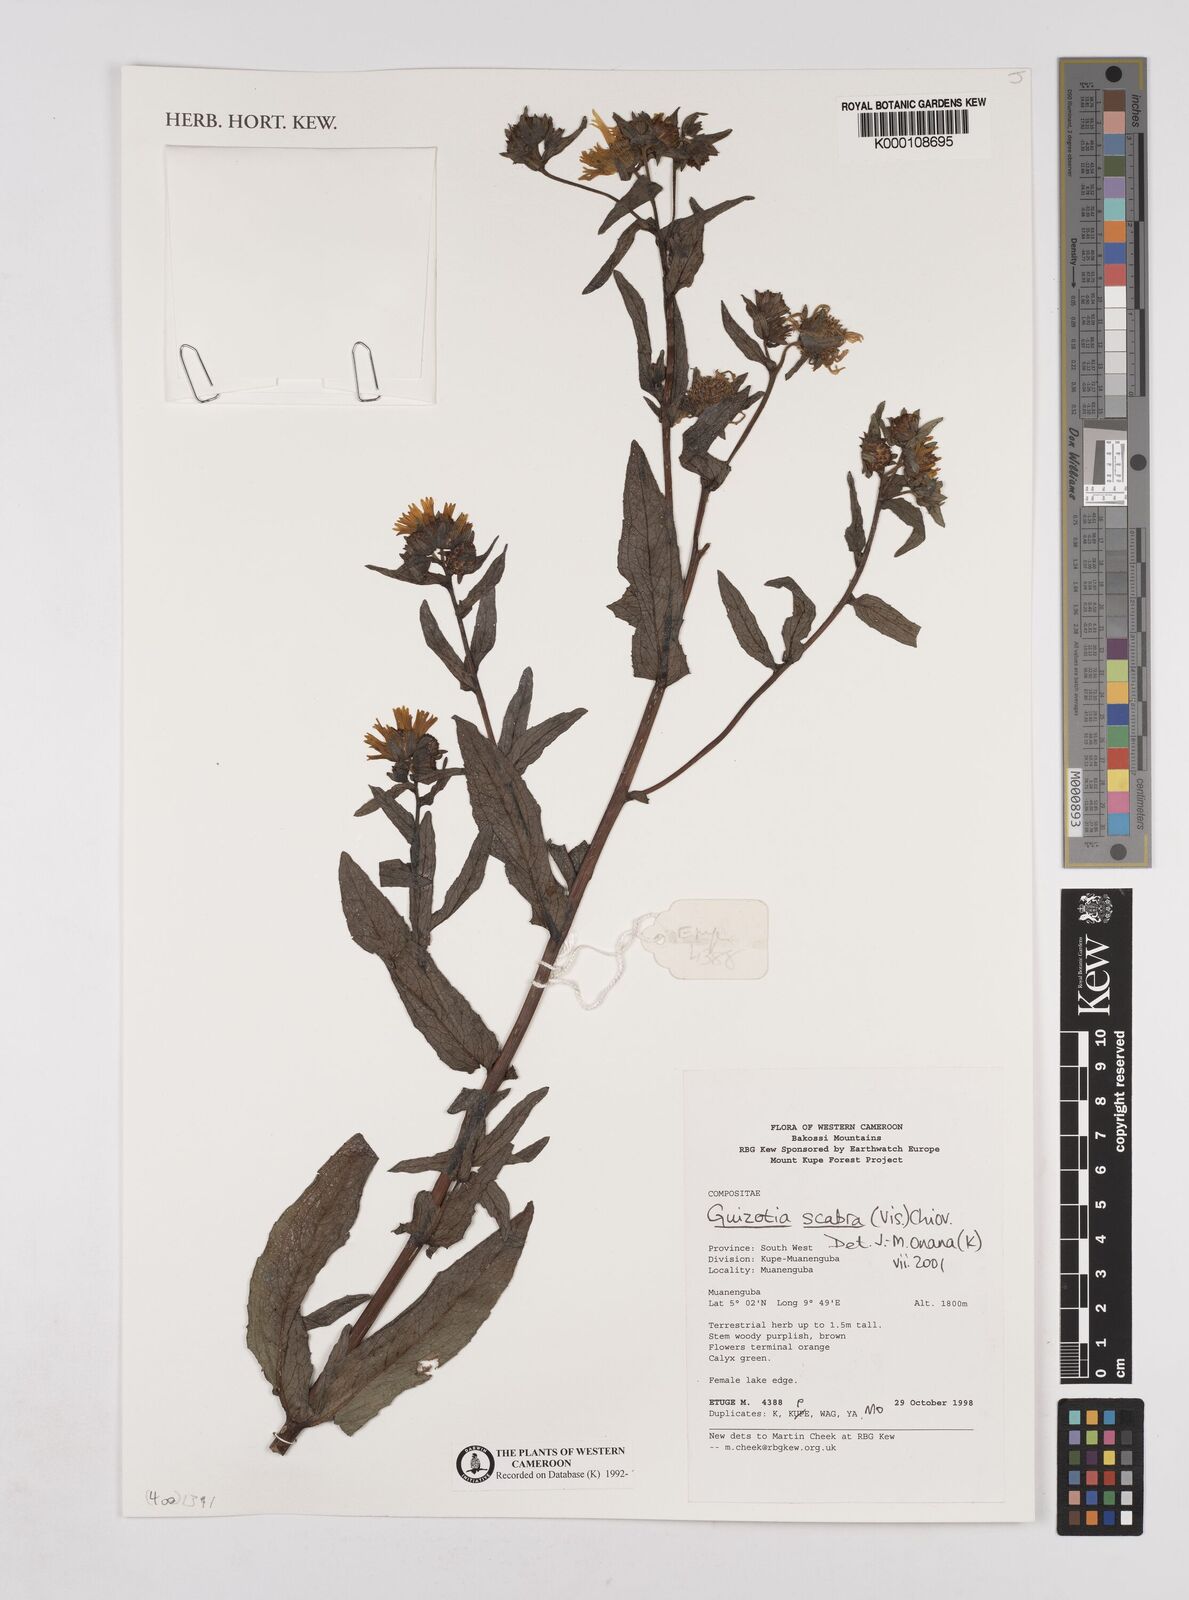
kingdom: Plantae
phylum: Tracheophyta
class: Magnoliopsida
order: Asterales
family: Asteraceae
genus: Guizotia
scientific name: Guizotia abyssinica
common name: Niger
